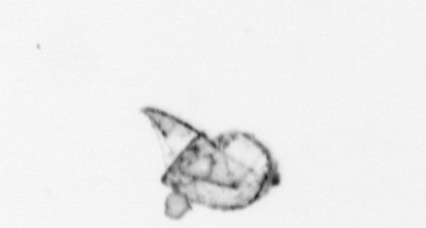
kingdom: Animalia
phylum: Arthropoda
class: Maxillopoda
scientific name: Maxillopoda
